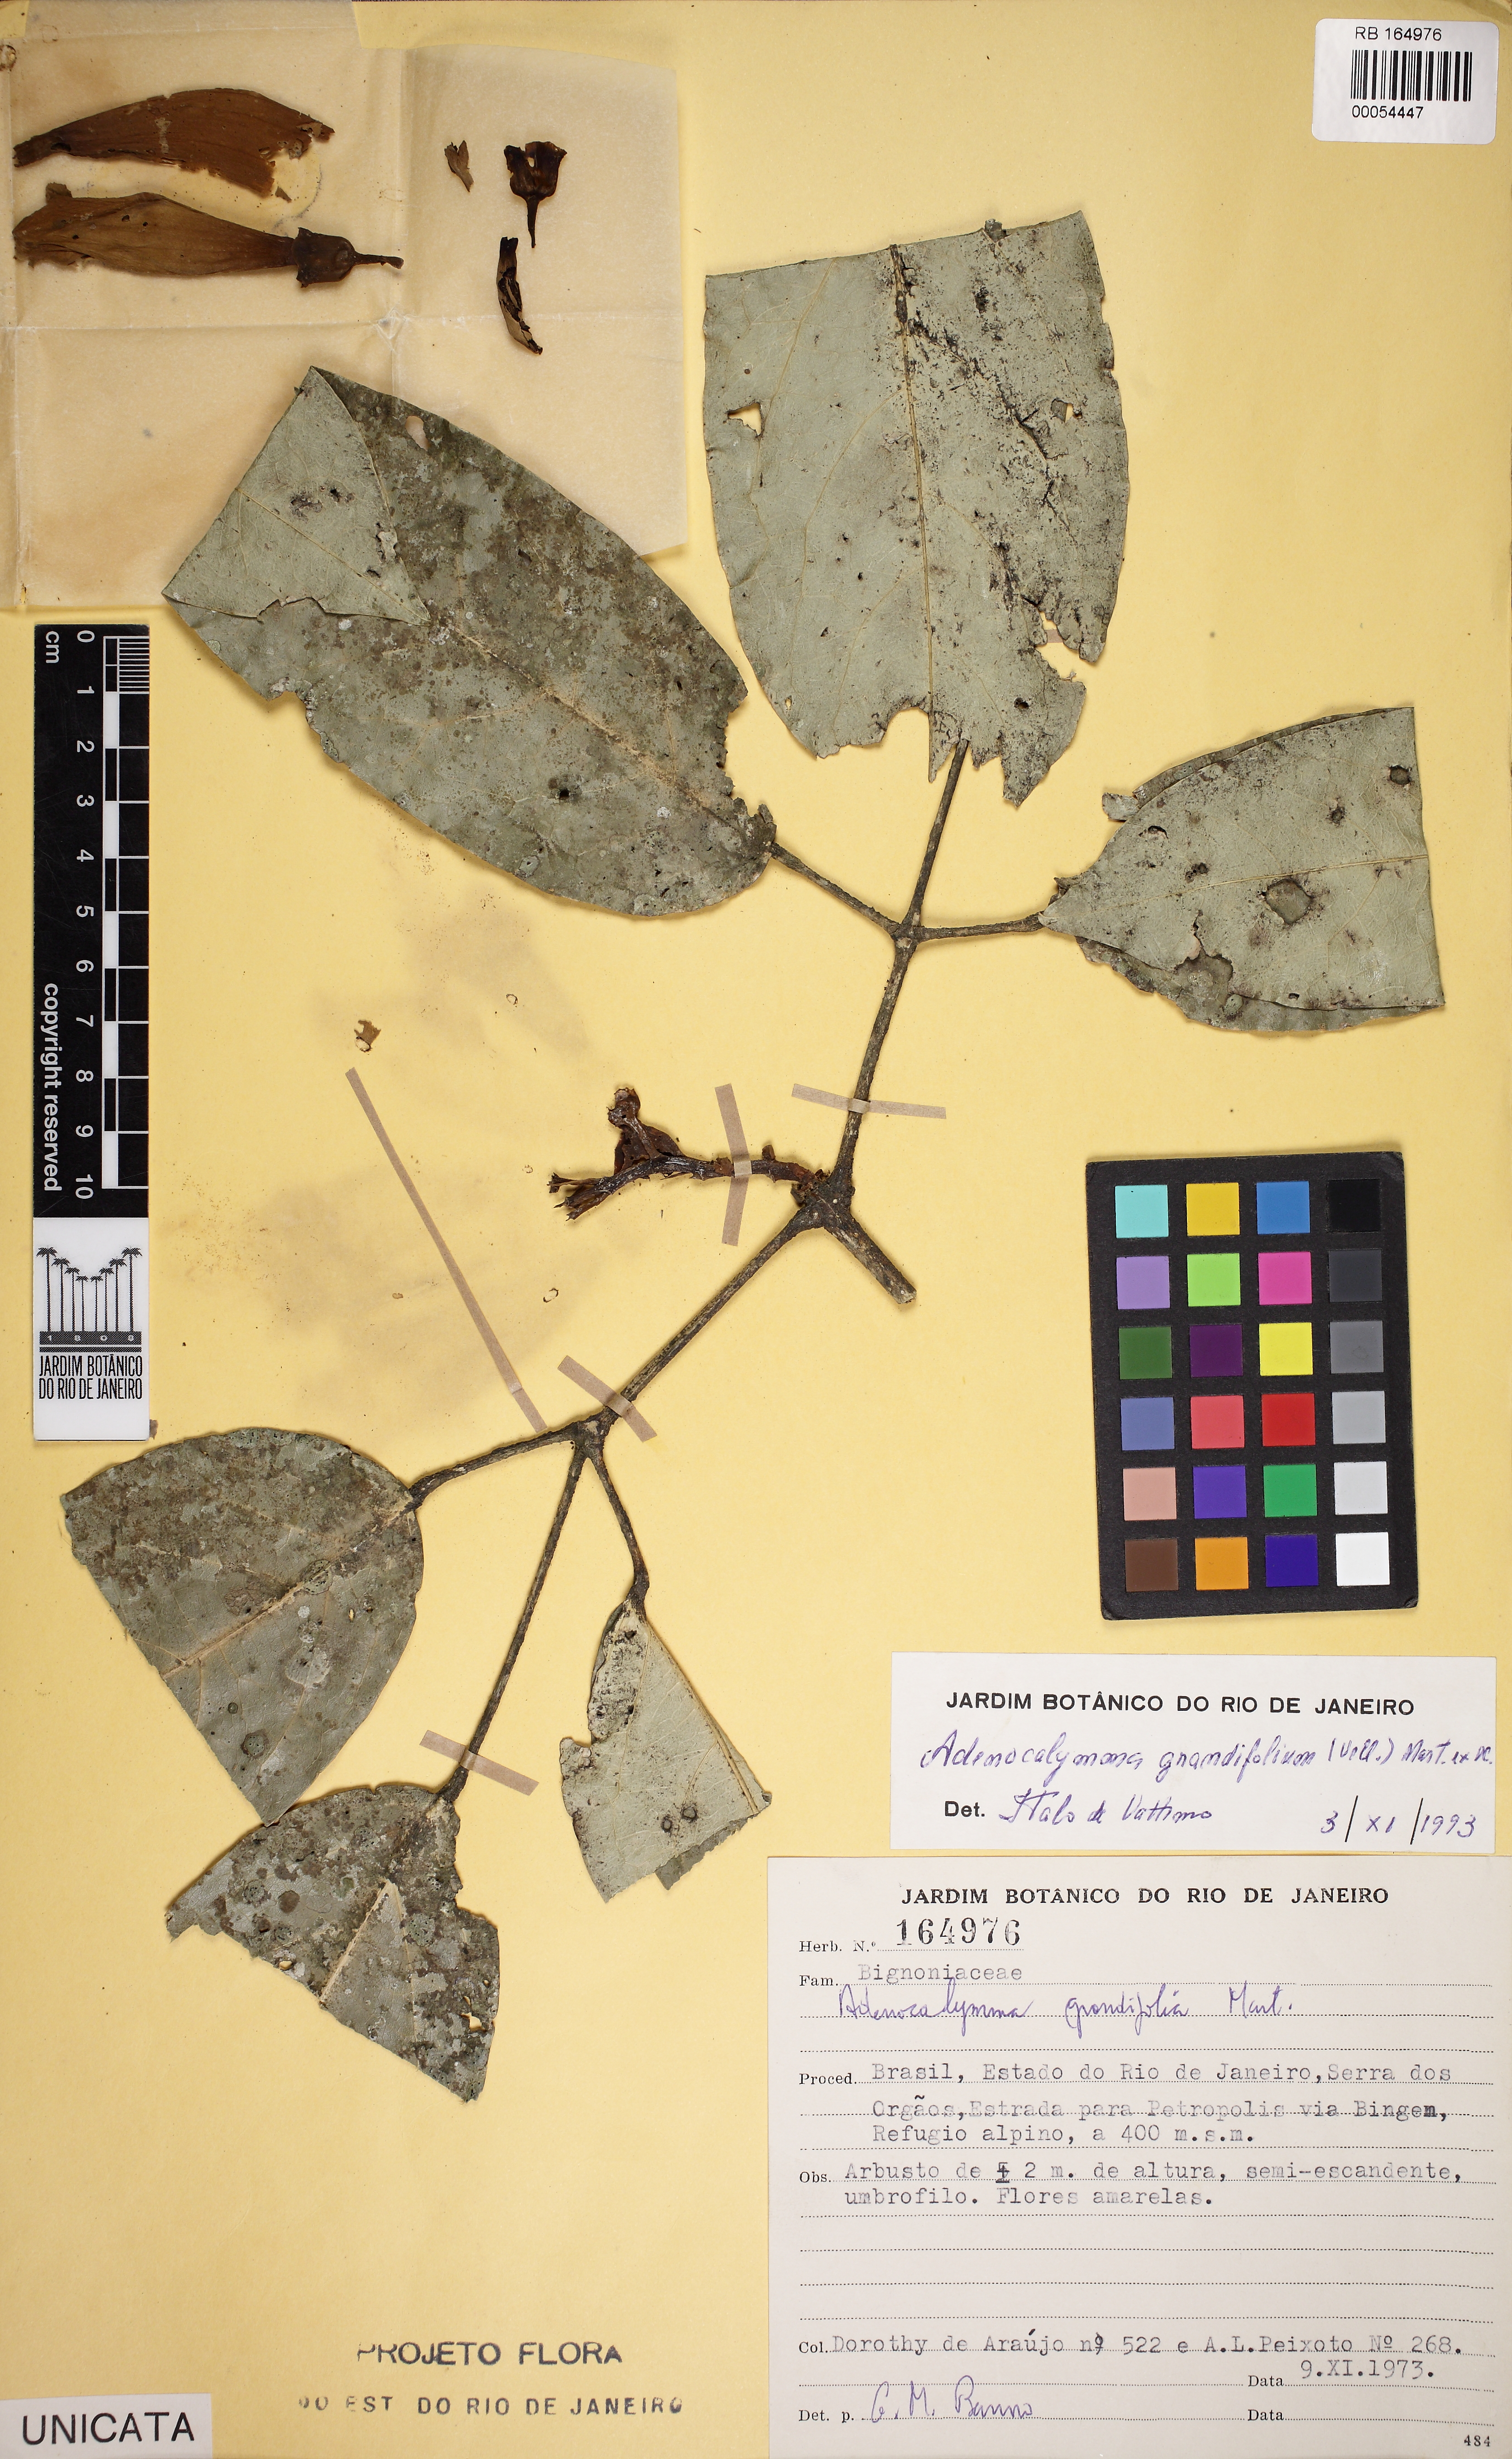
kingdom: Plantae
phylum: Tracheophyta
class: Magnoliopsida
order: Lamiales
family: Bignoniaceae
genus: Adenocalymma
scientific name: Adenocalymma ternatum
